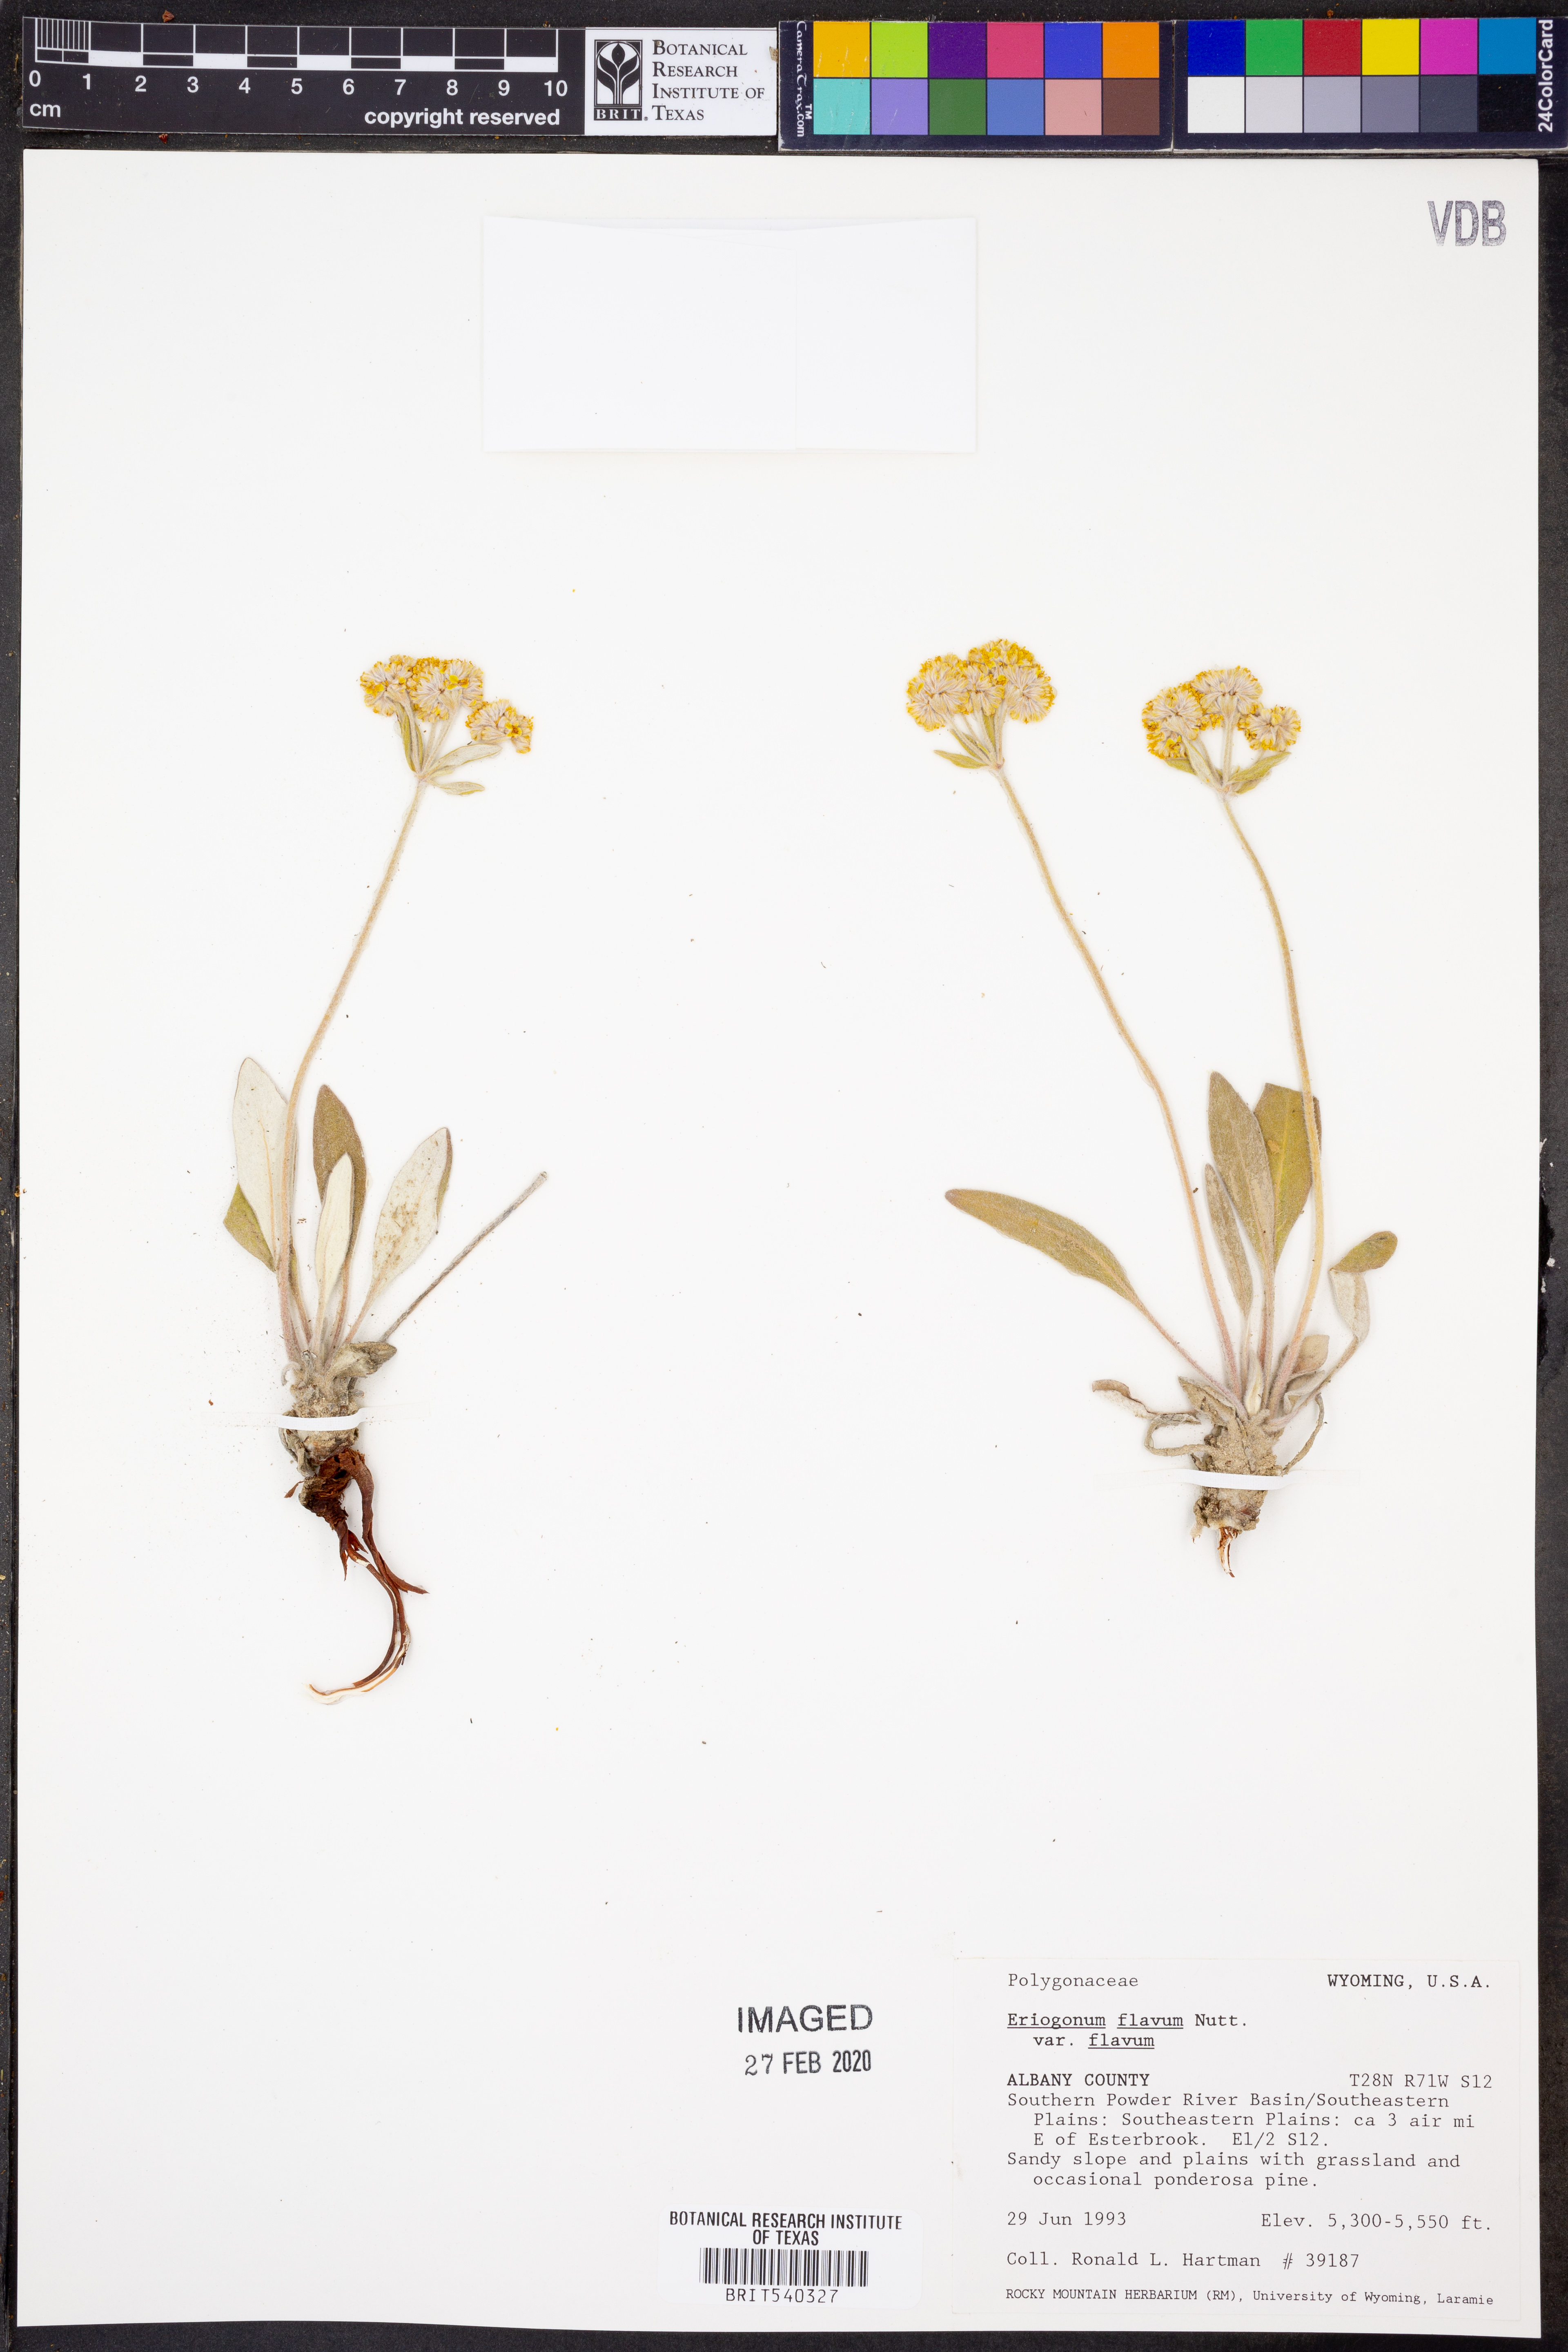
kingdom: Plantae
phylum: Tracheophyta
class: Magnoliopsida
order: Caryophyllales
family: Polygonaceae
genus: Eriogonum
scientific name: Eriogonum flavum
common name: Alpine golden wild buckwheat
